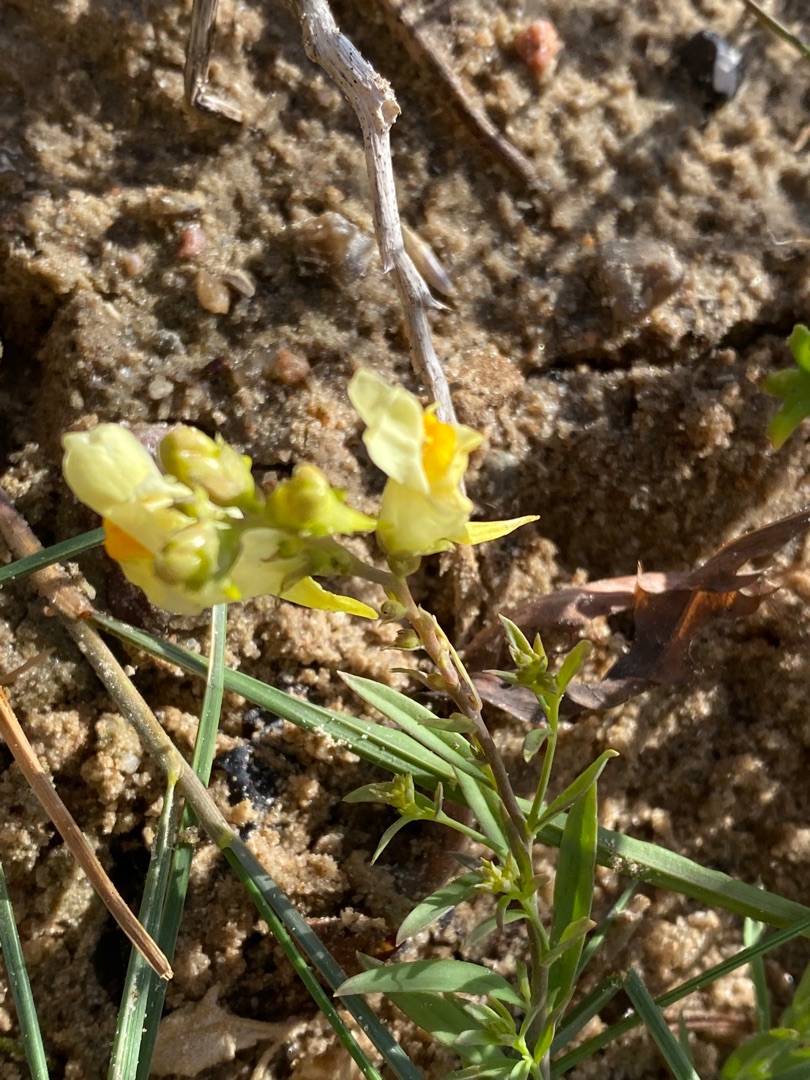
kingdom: Plantae
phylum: Tracheophyta
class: Magnoliopsida
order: Lamiales
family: Plantaginaceae
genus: Linaria
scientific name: Linaria vulgaris
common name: Almindelig torskemund
